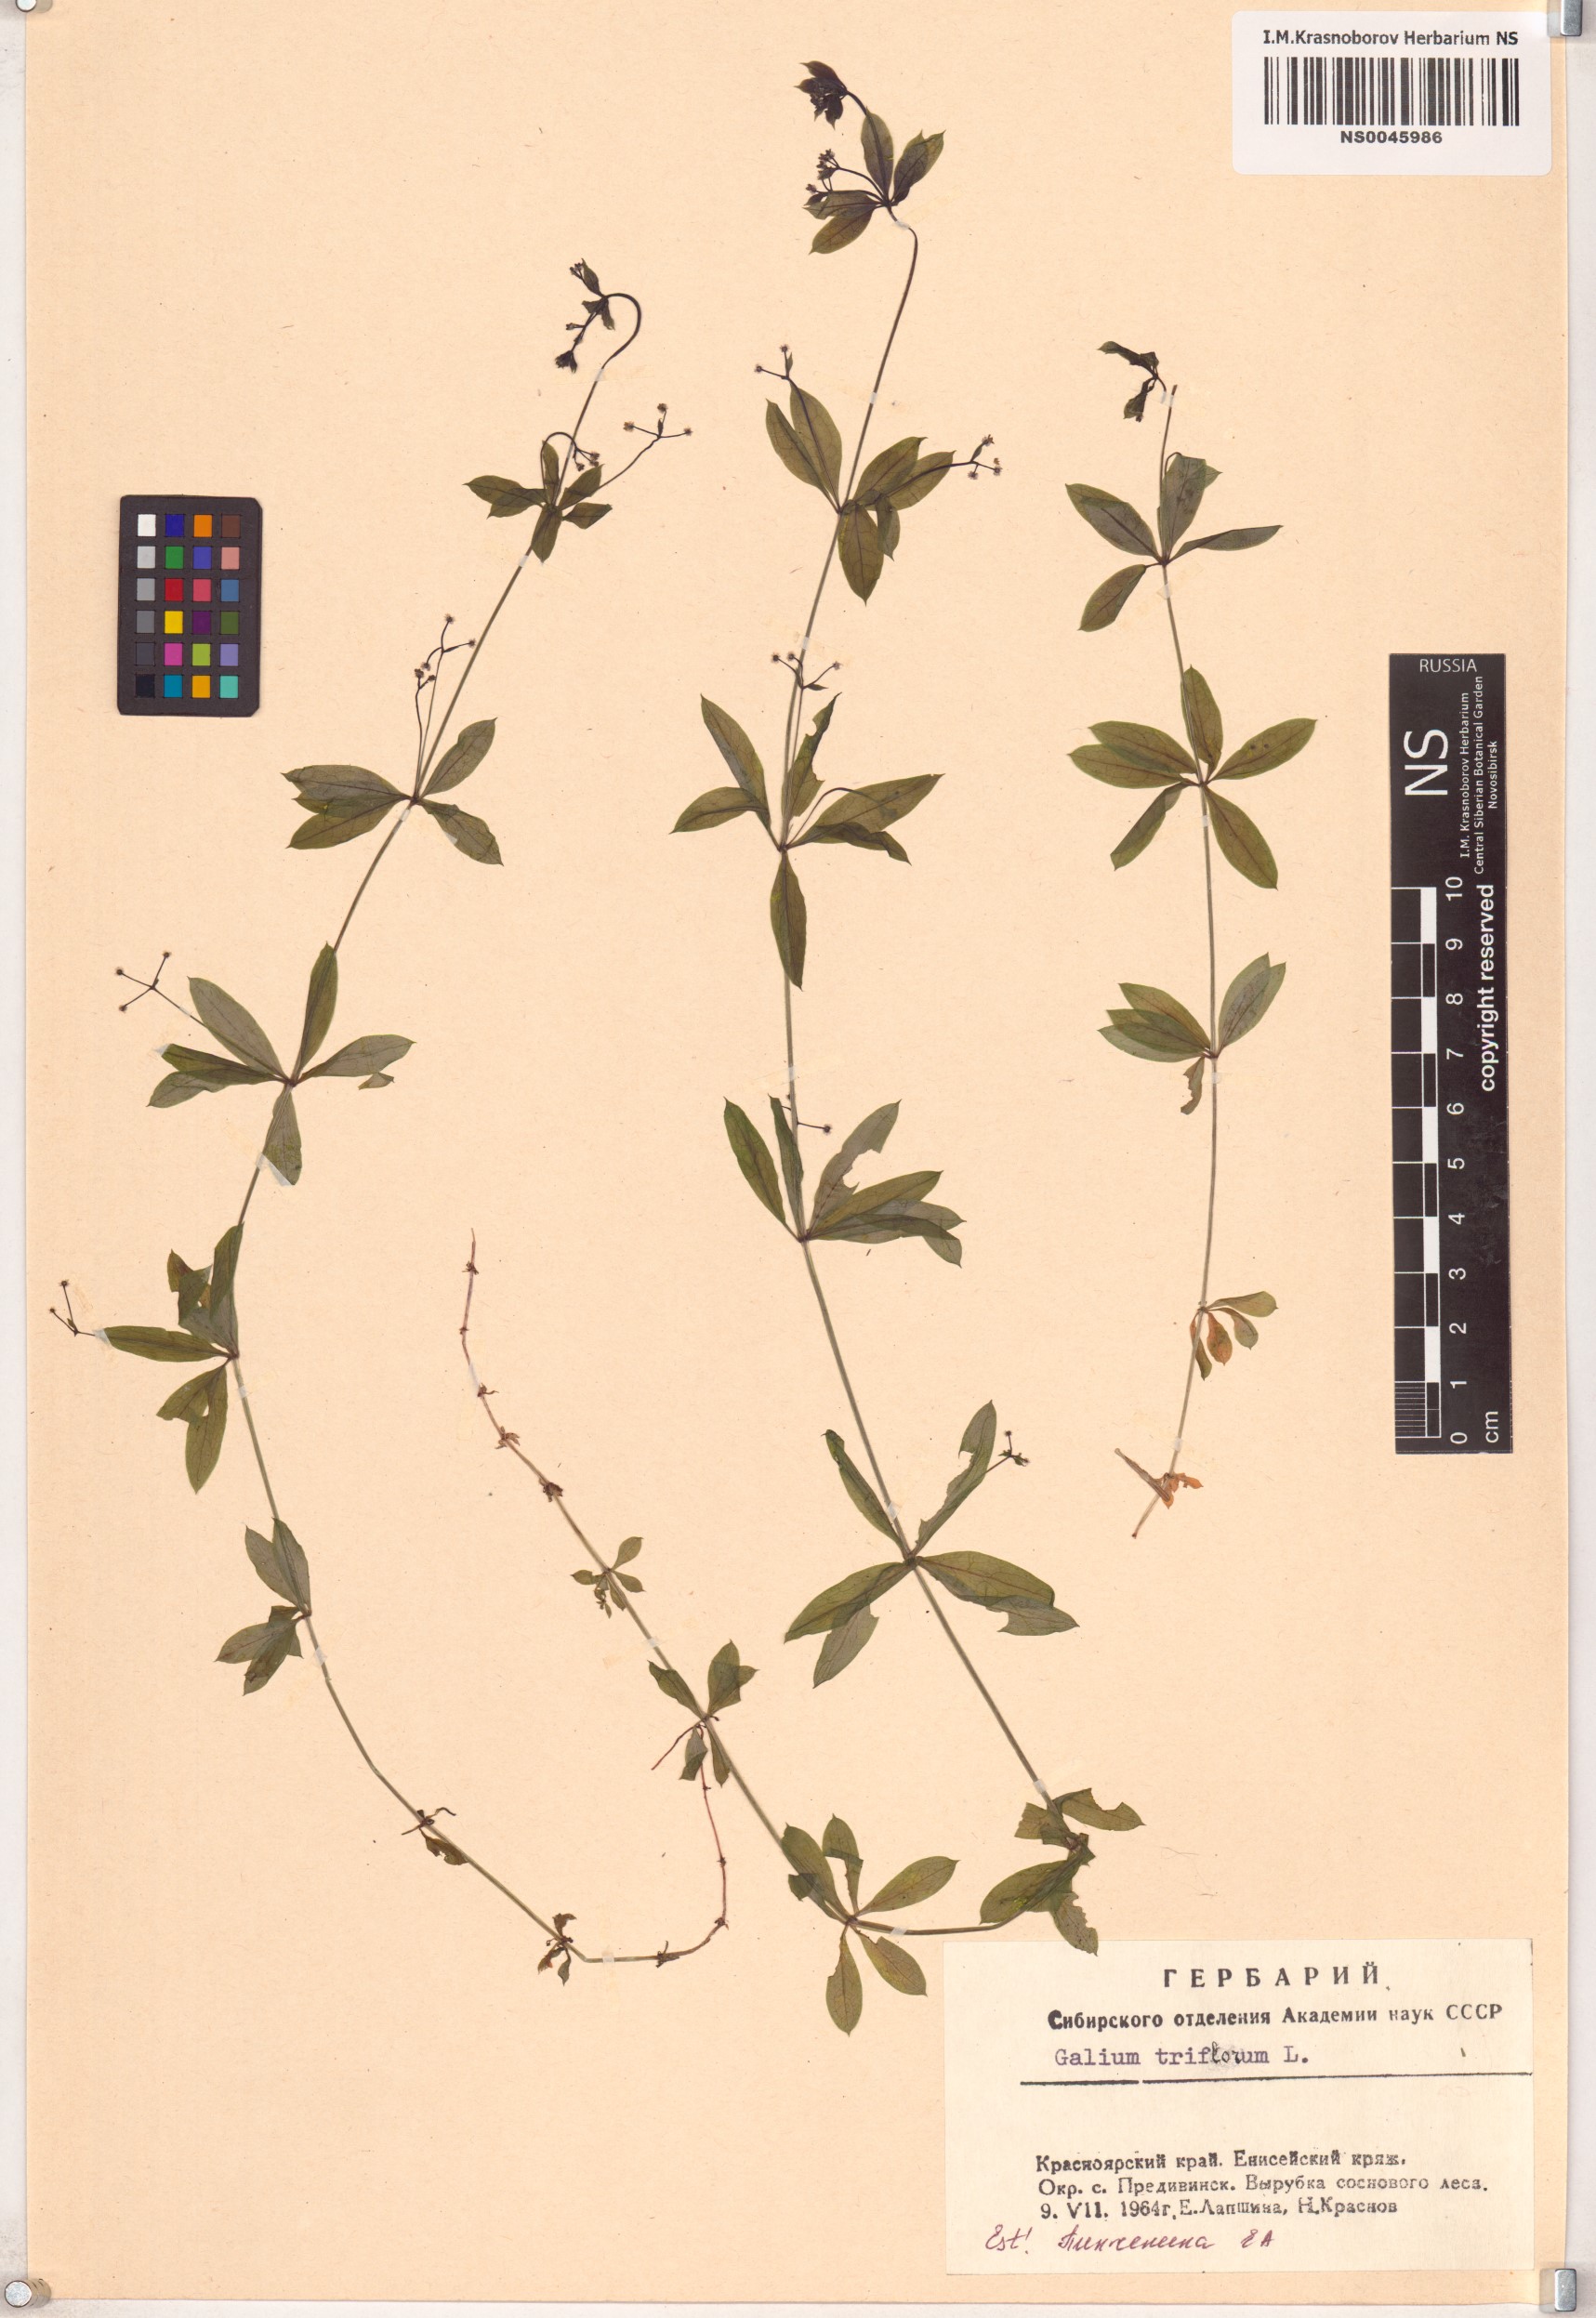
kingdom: Plantae
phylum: Tracheophyta
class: Magnoliopsida
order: Gentianales
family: Rubiaceae
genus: Galium
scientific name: Galium triflorum
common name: Fragrant bedstraw
